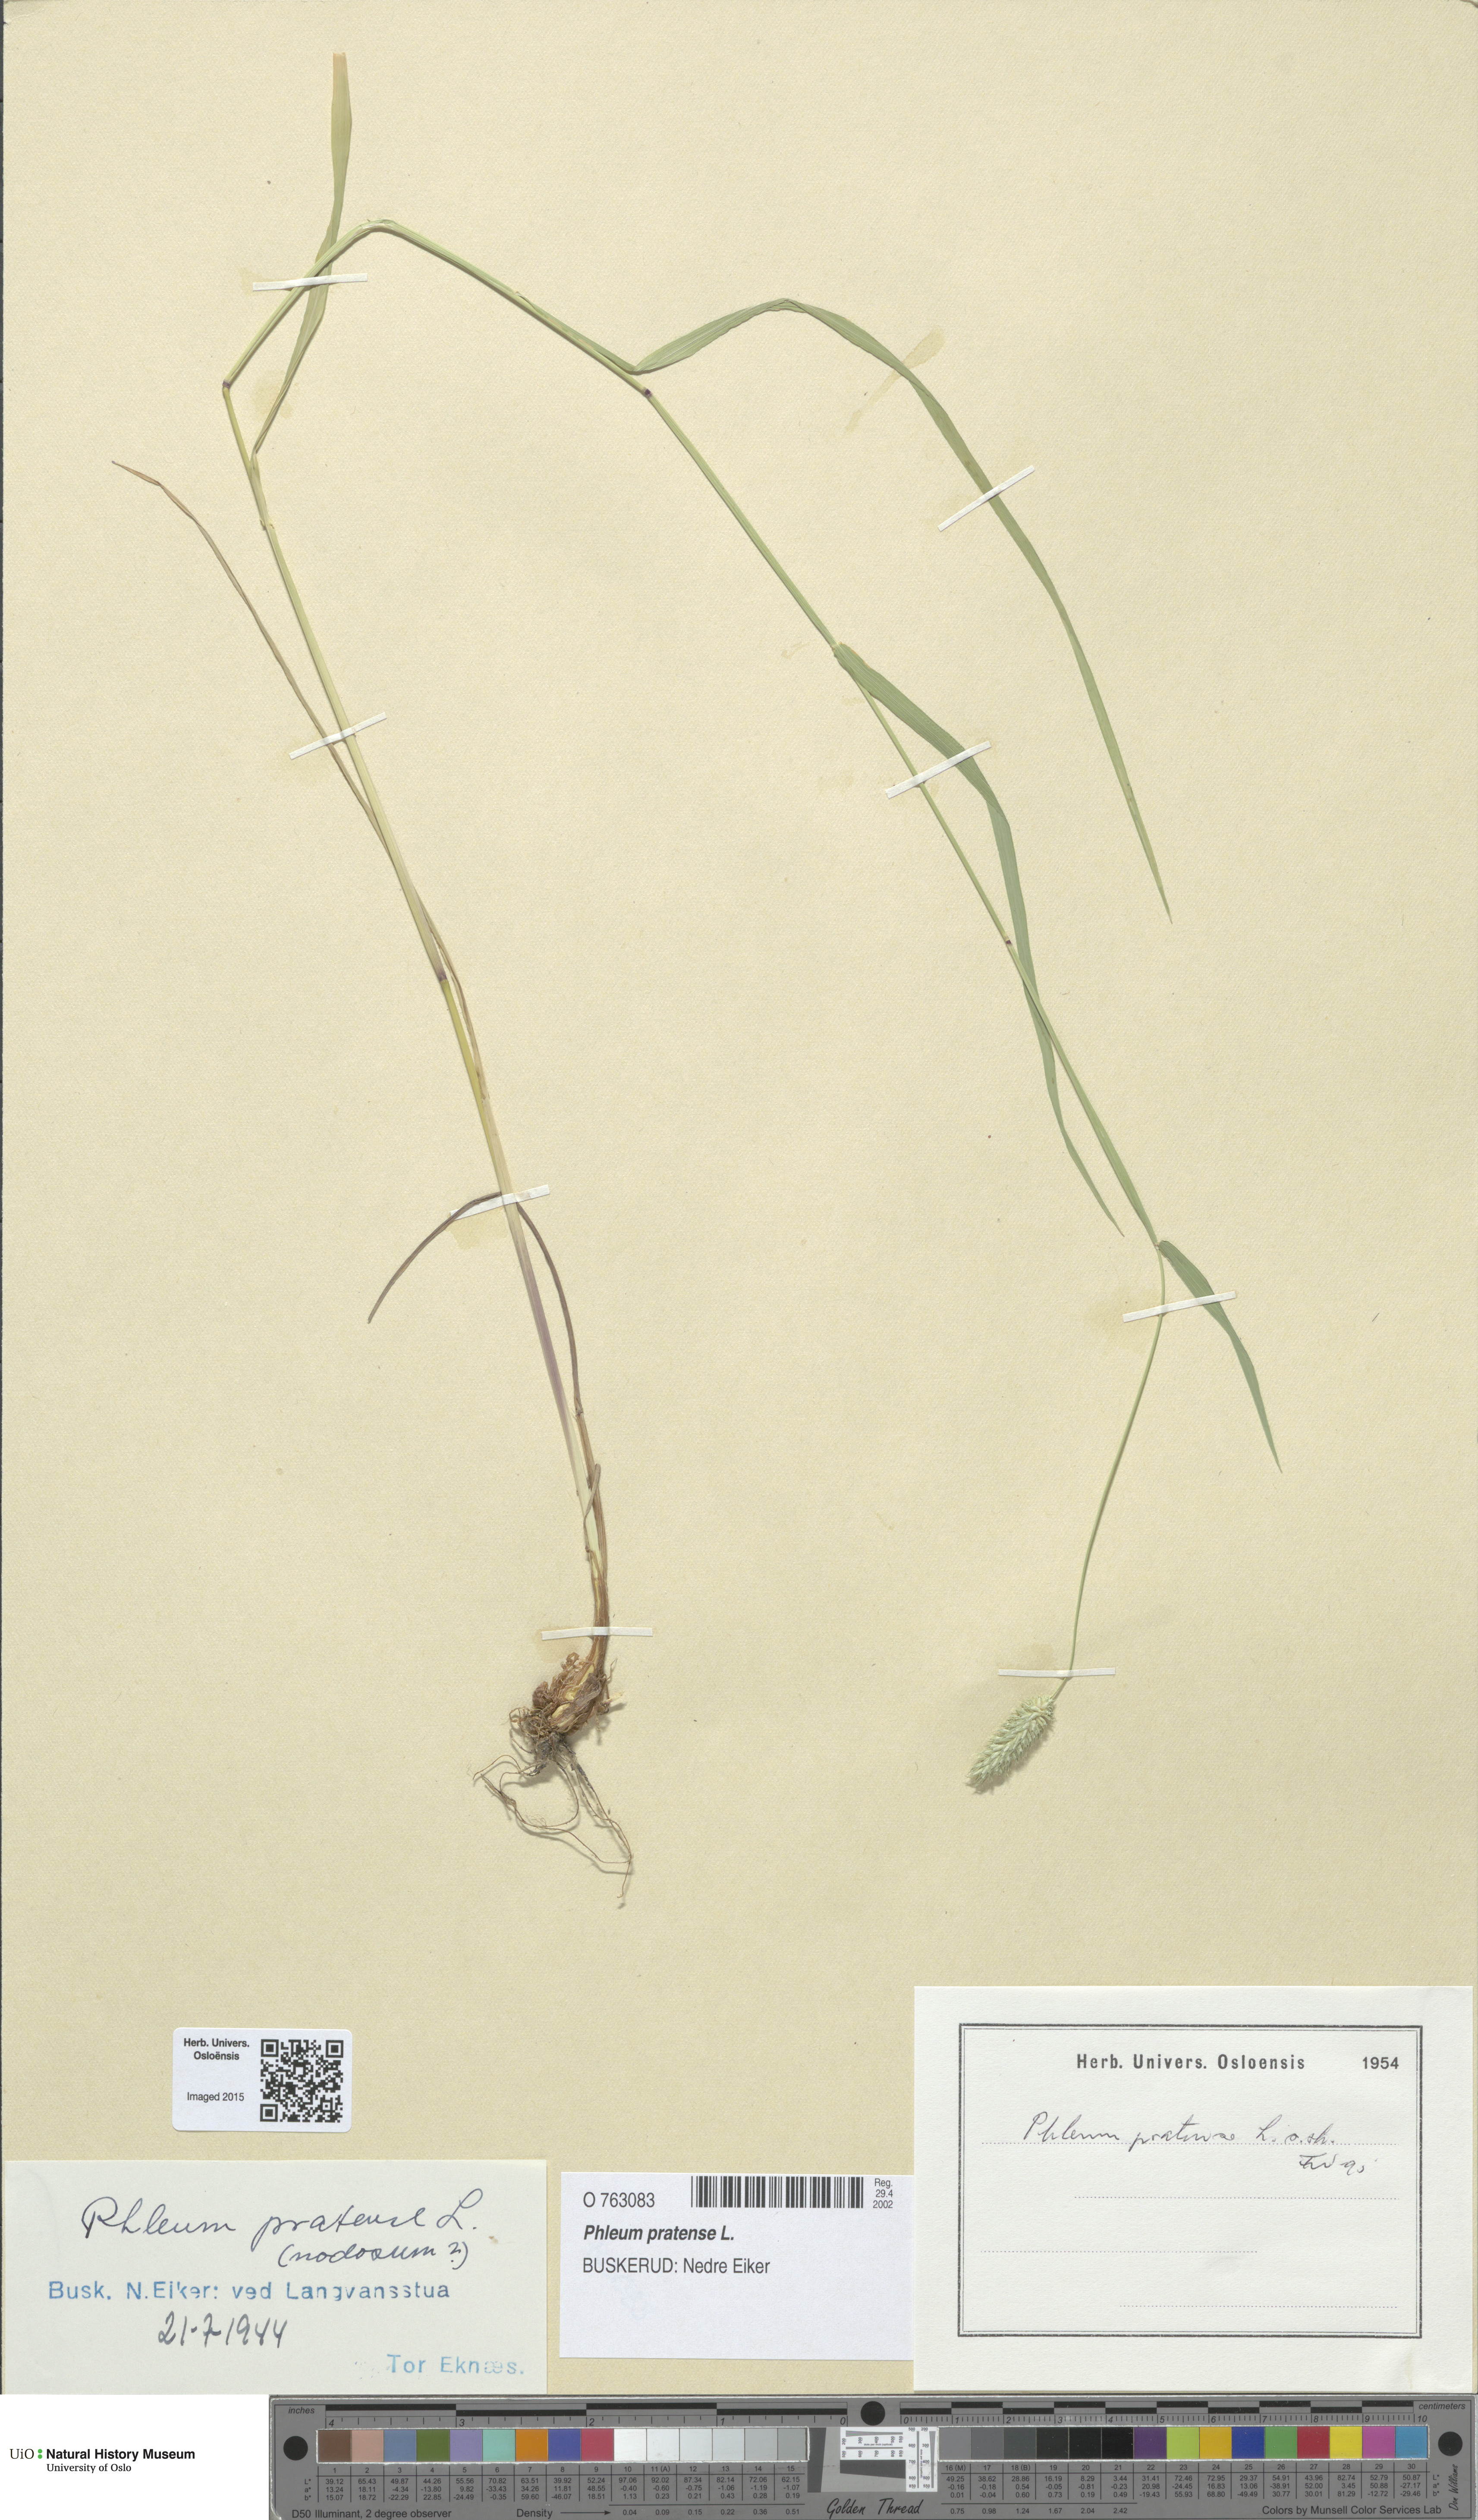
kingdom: Plantae
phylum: Tracheophyta
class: Liliopsida
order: Poales
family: Poaceae
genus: Phleum
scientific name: Phleum pratense
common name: Timothy grass
